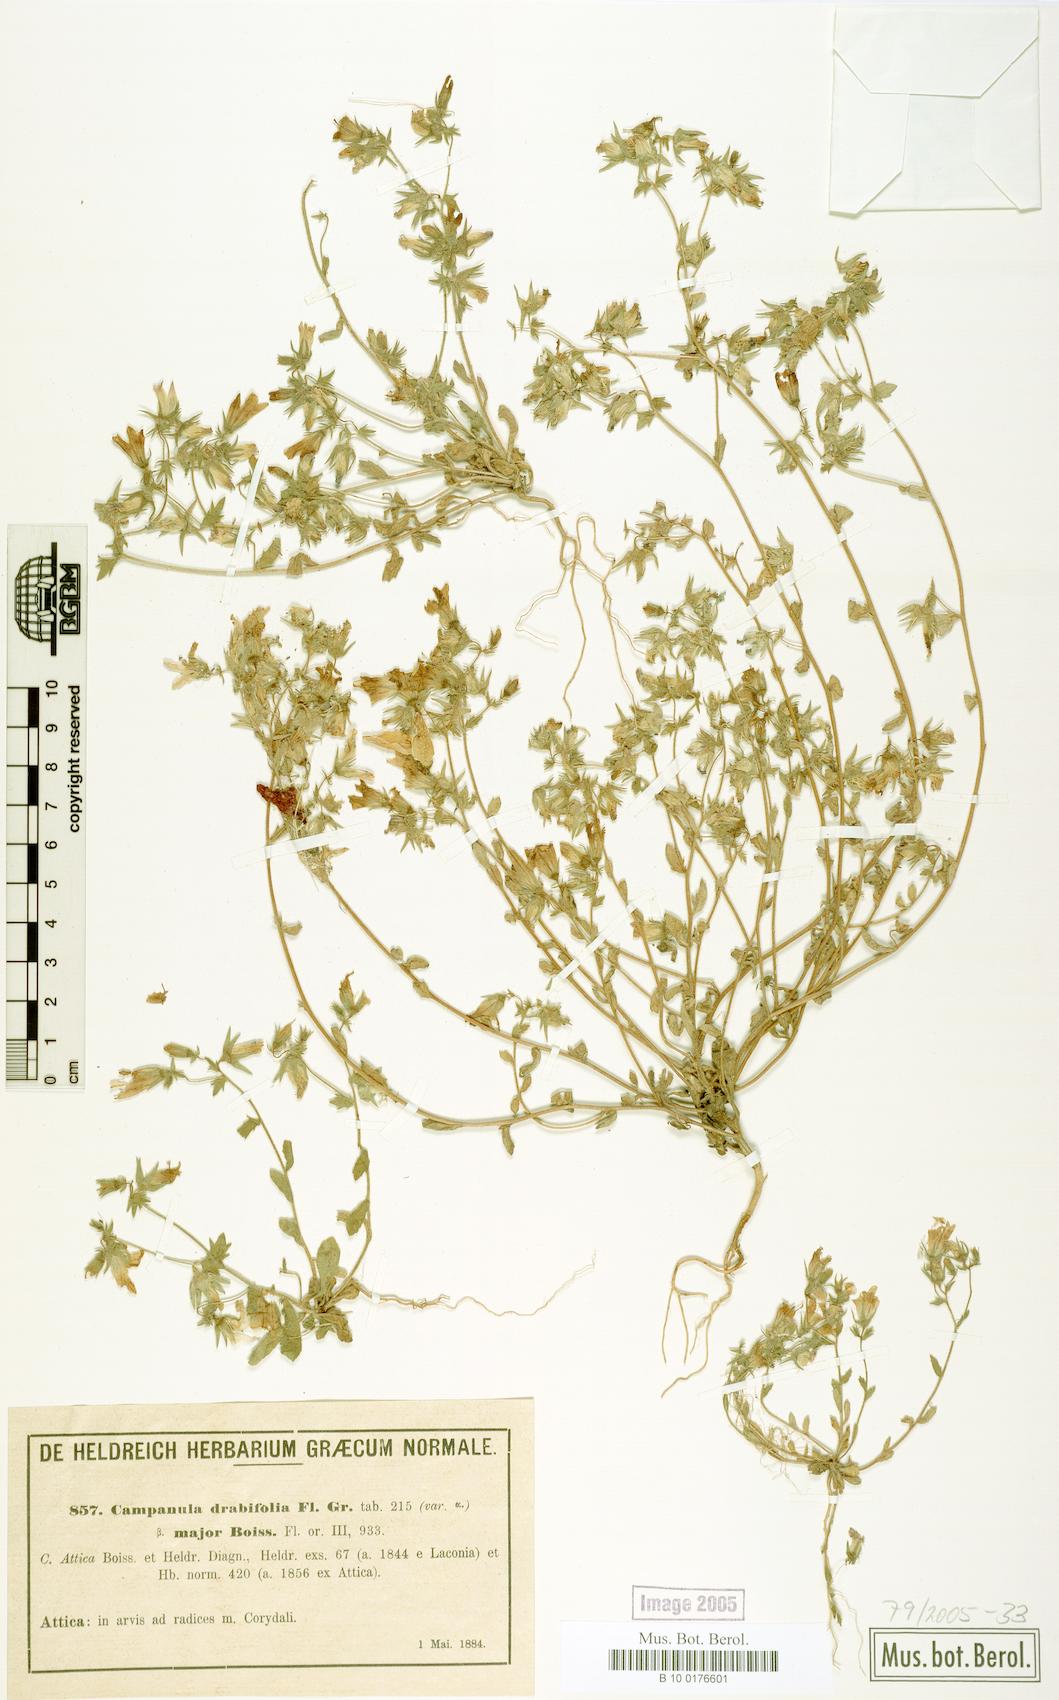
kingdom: Plantae
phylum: Tracheophyta
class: Magnoliopsida
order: Asterales
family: Campanulaceae
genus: Campanula
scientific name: Campanula drabifolia
